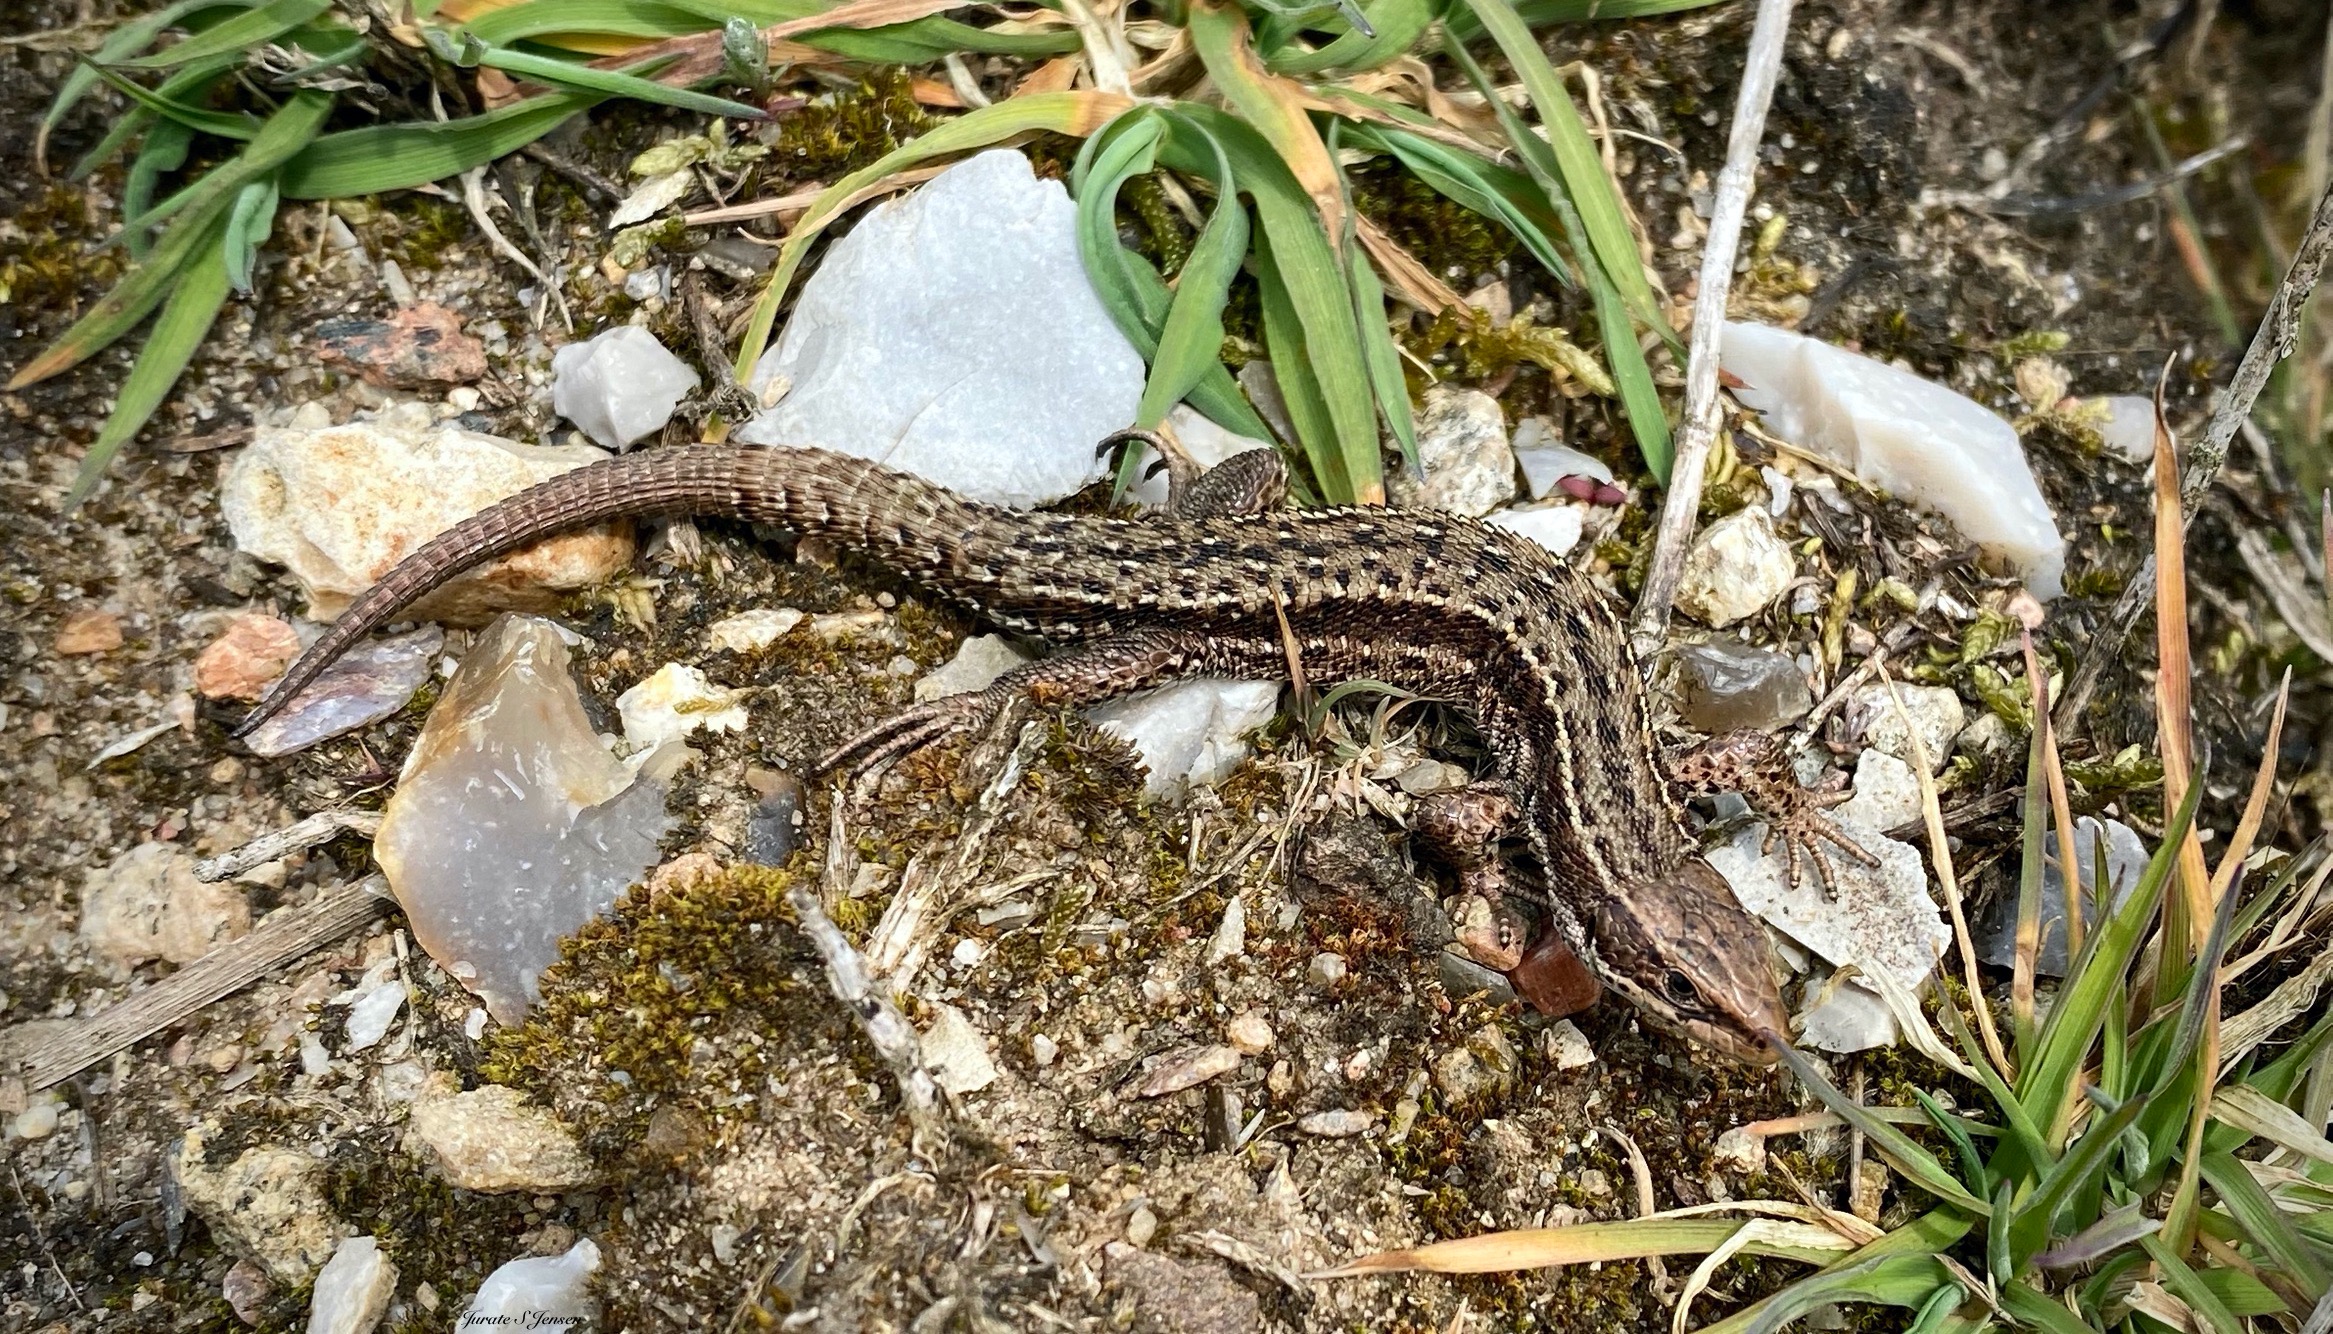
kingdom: Animalia
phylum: Chordata
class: Squamata
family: Lacertidae
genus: Zootoca
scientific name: Zootoca vivipara
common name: Skovfirben
